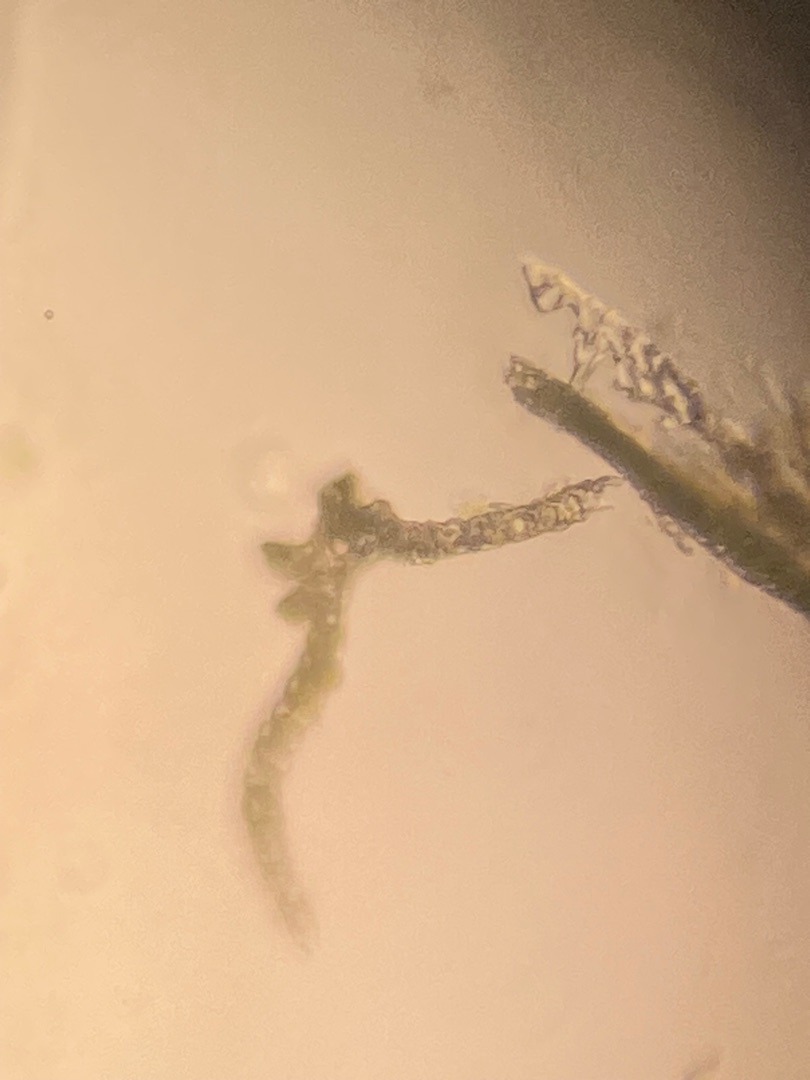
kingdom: Plantae
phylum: Bryophyta
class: Bryopsida
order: Dicranales
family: Dicranaceae
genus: Dicranum
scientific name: Dicranum scoparium
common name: Almindelig kløvtand
